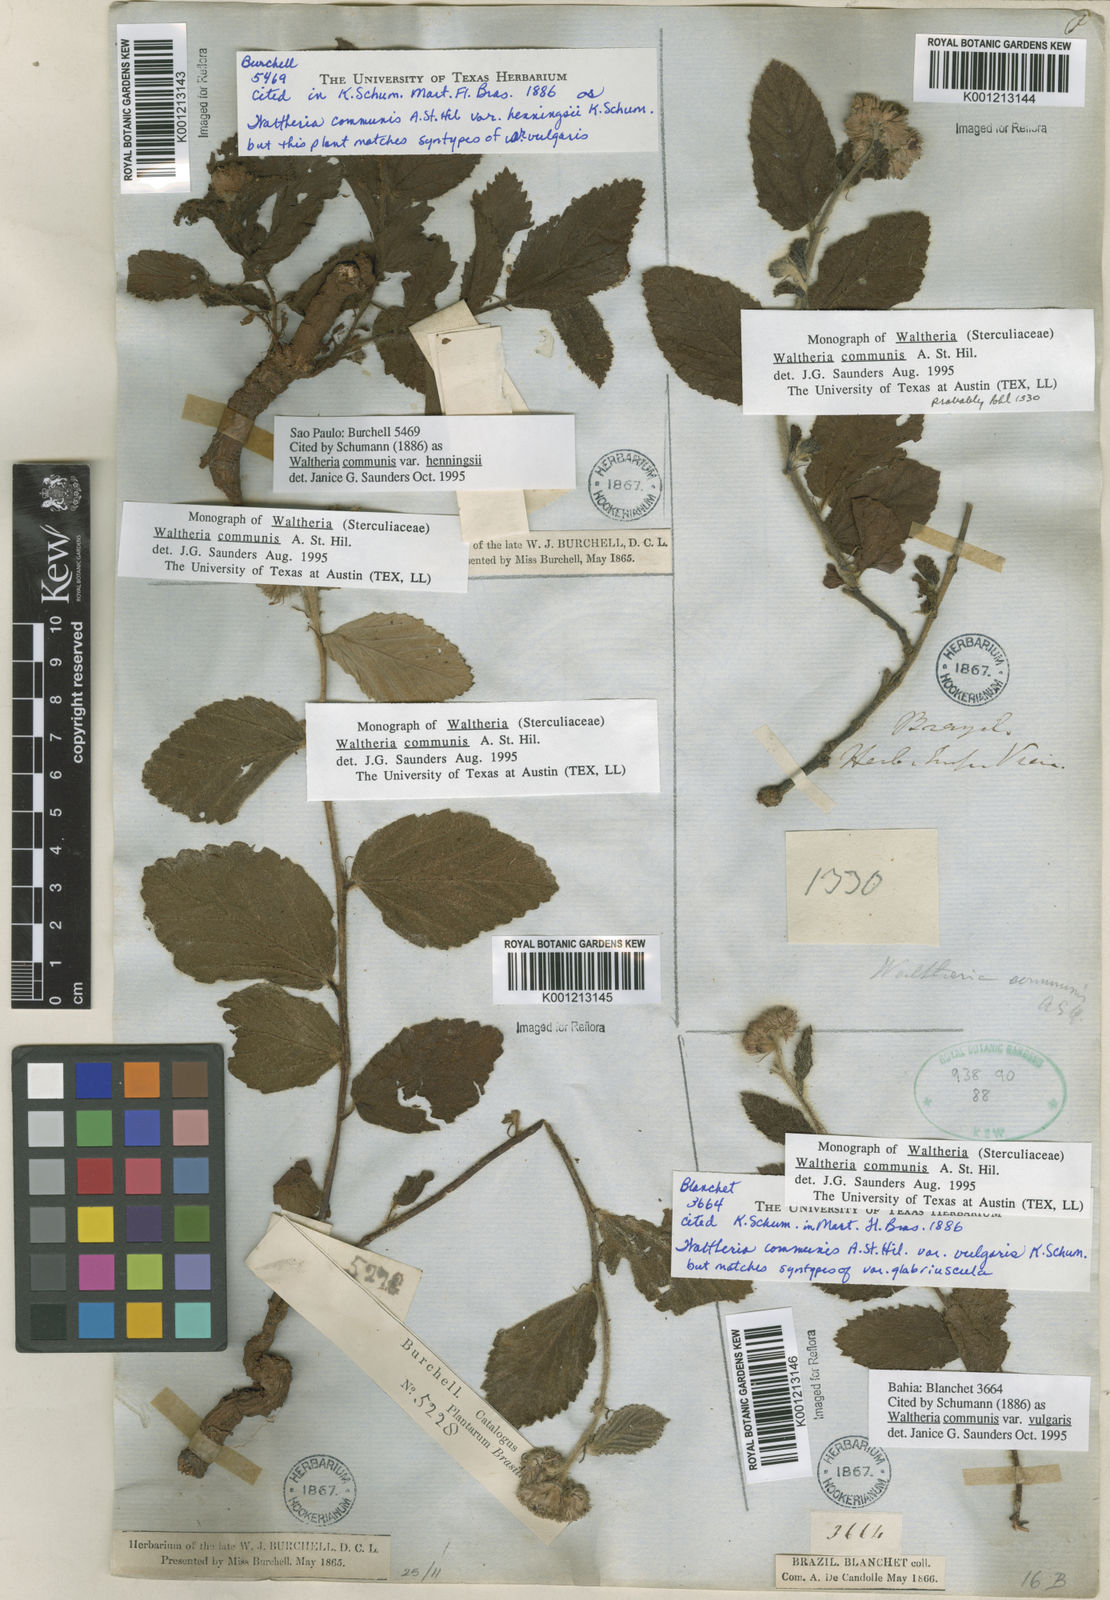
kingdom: Plantae
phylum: Tracheophyta
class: Magnoliopsida
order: Malvales
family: Malvaceae
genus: Waltheria
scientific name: Waltheria communis
